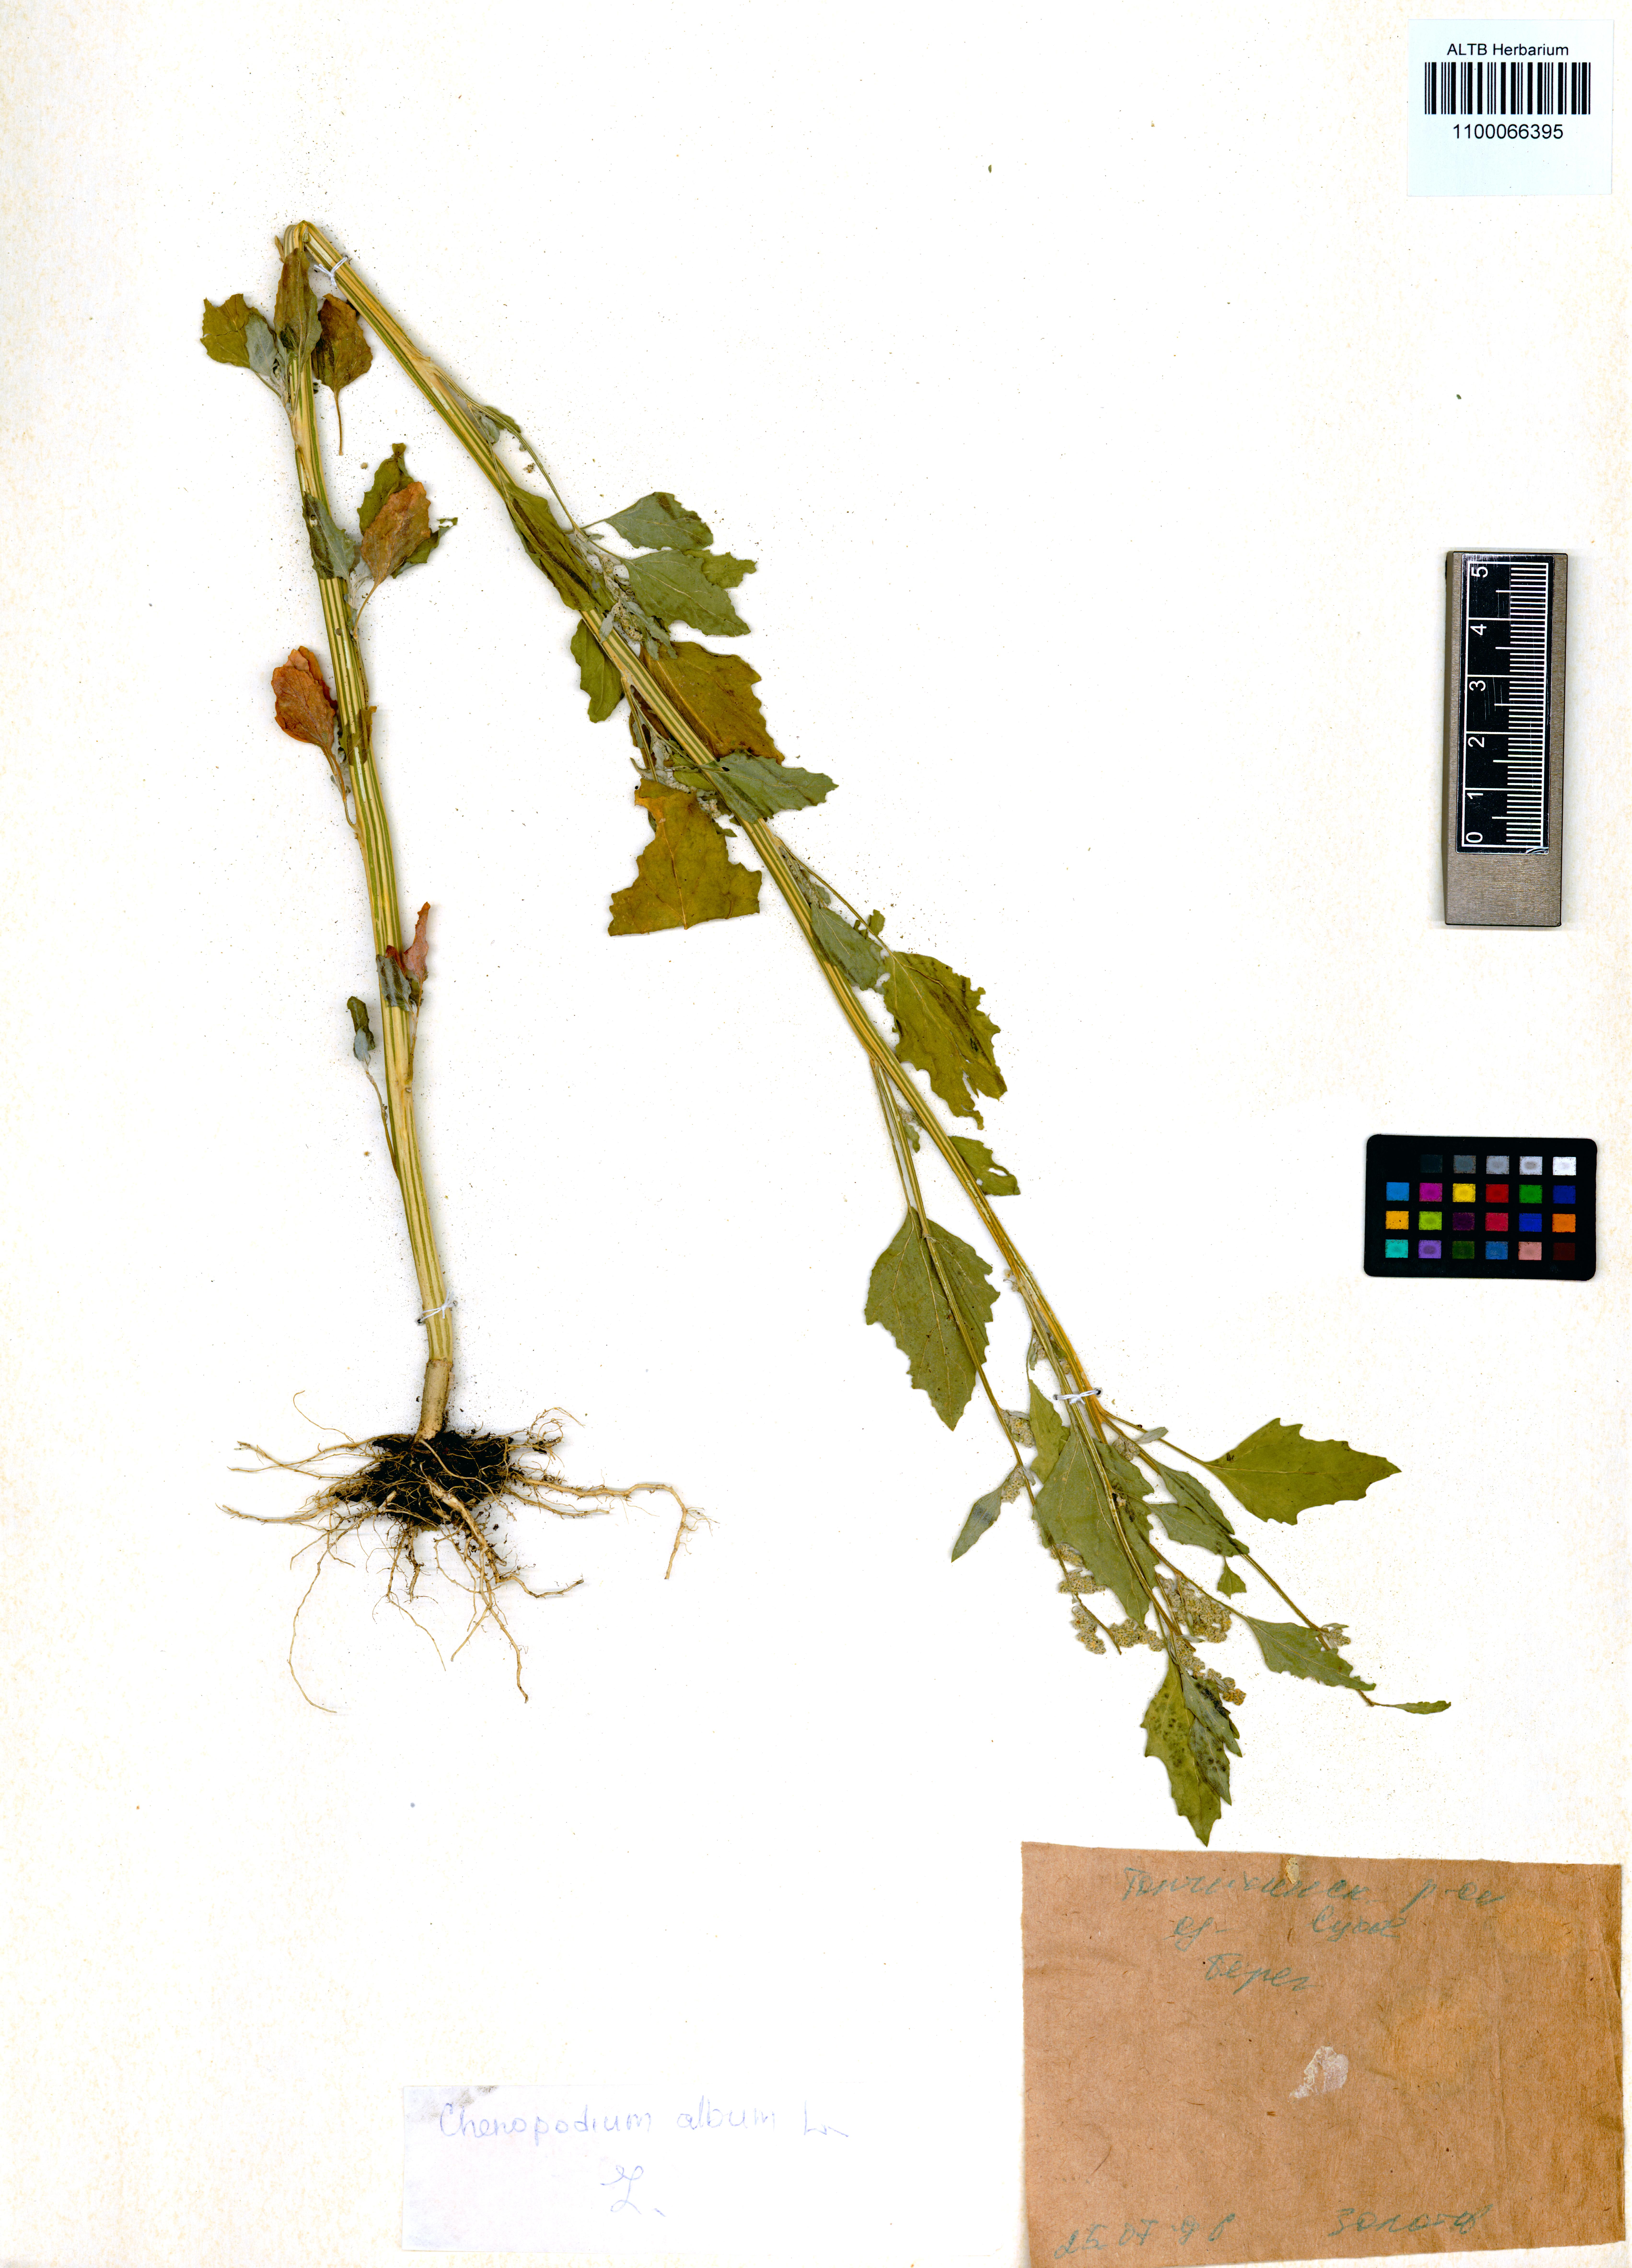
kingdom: Plantae
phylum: Tracheophyta
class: Magnoliopsida
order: Caryophyllales
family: Amaranthaceae
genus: Chenopodium
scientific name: Chenopodium album
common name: Fat-hen
